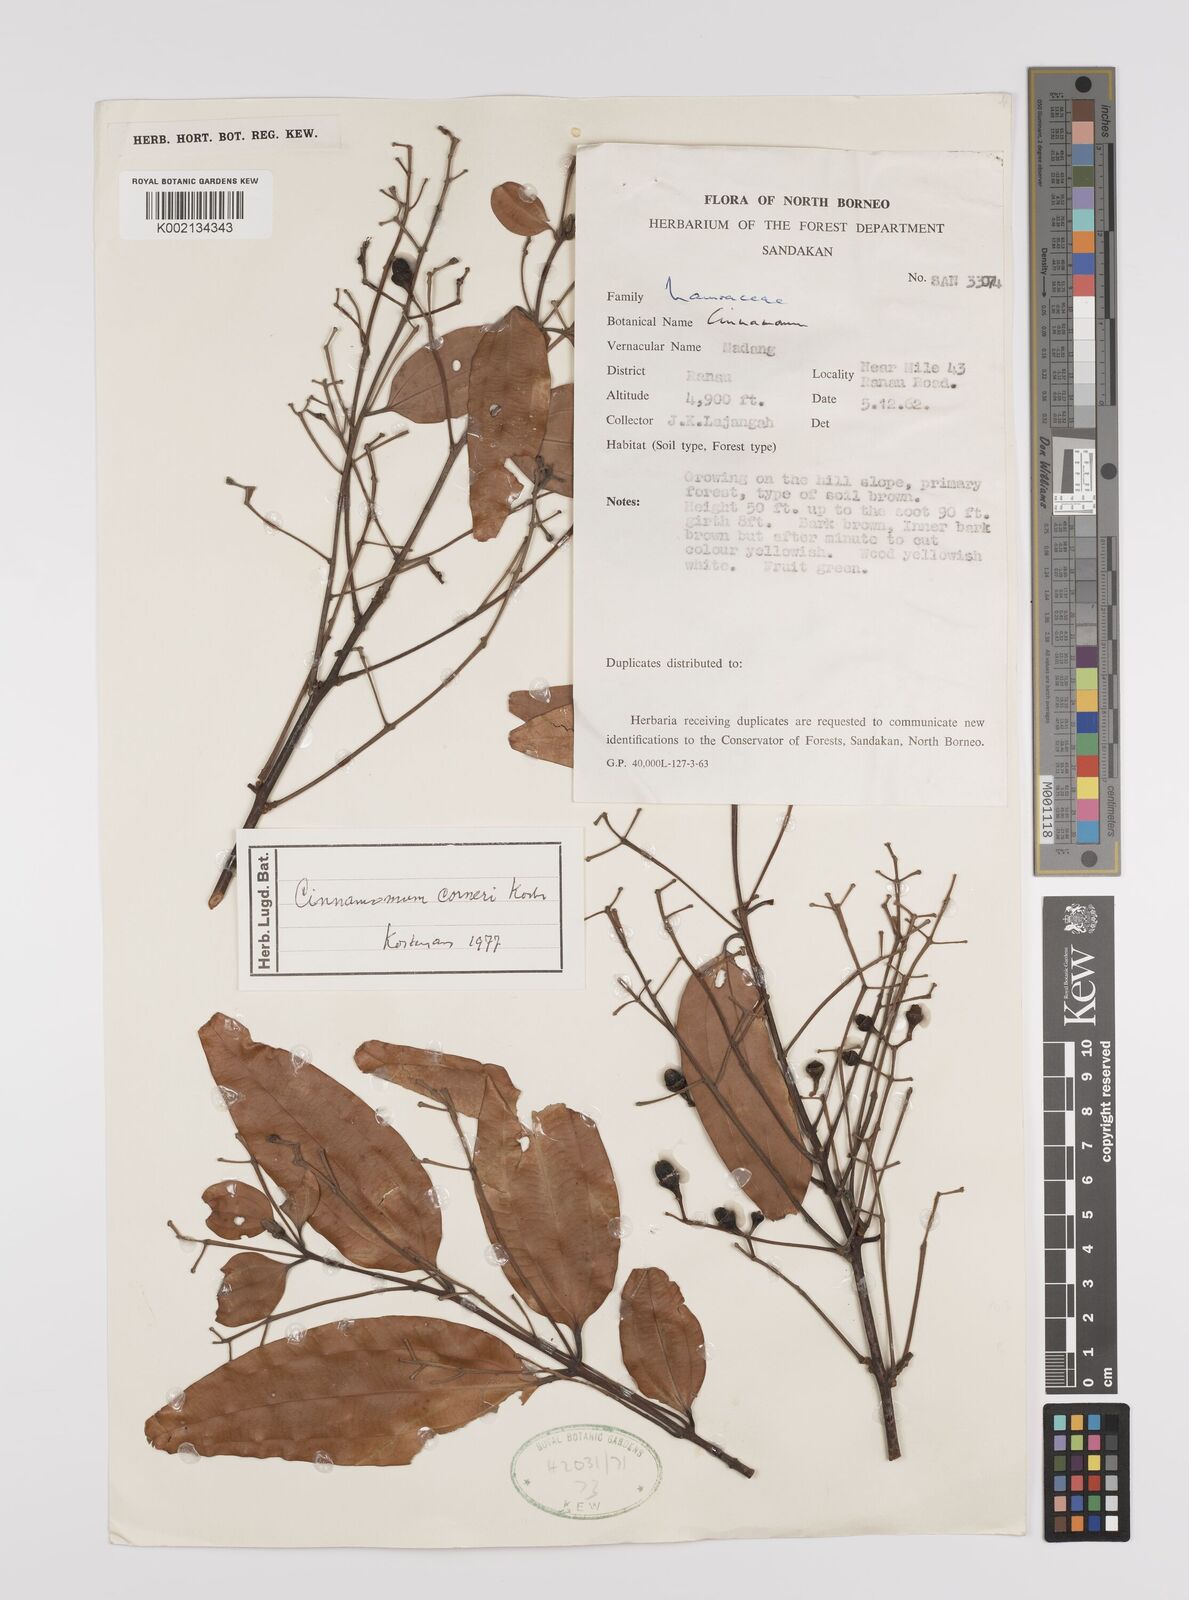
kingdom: Plantae
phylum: Tracheophyta
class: Magnoliopsida
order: Laurales
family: Lauraceae
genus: Cinnamomum
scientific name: Cinnamomum corneri
